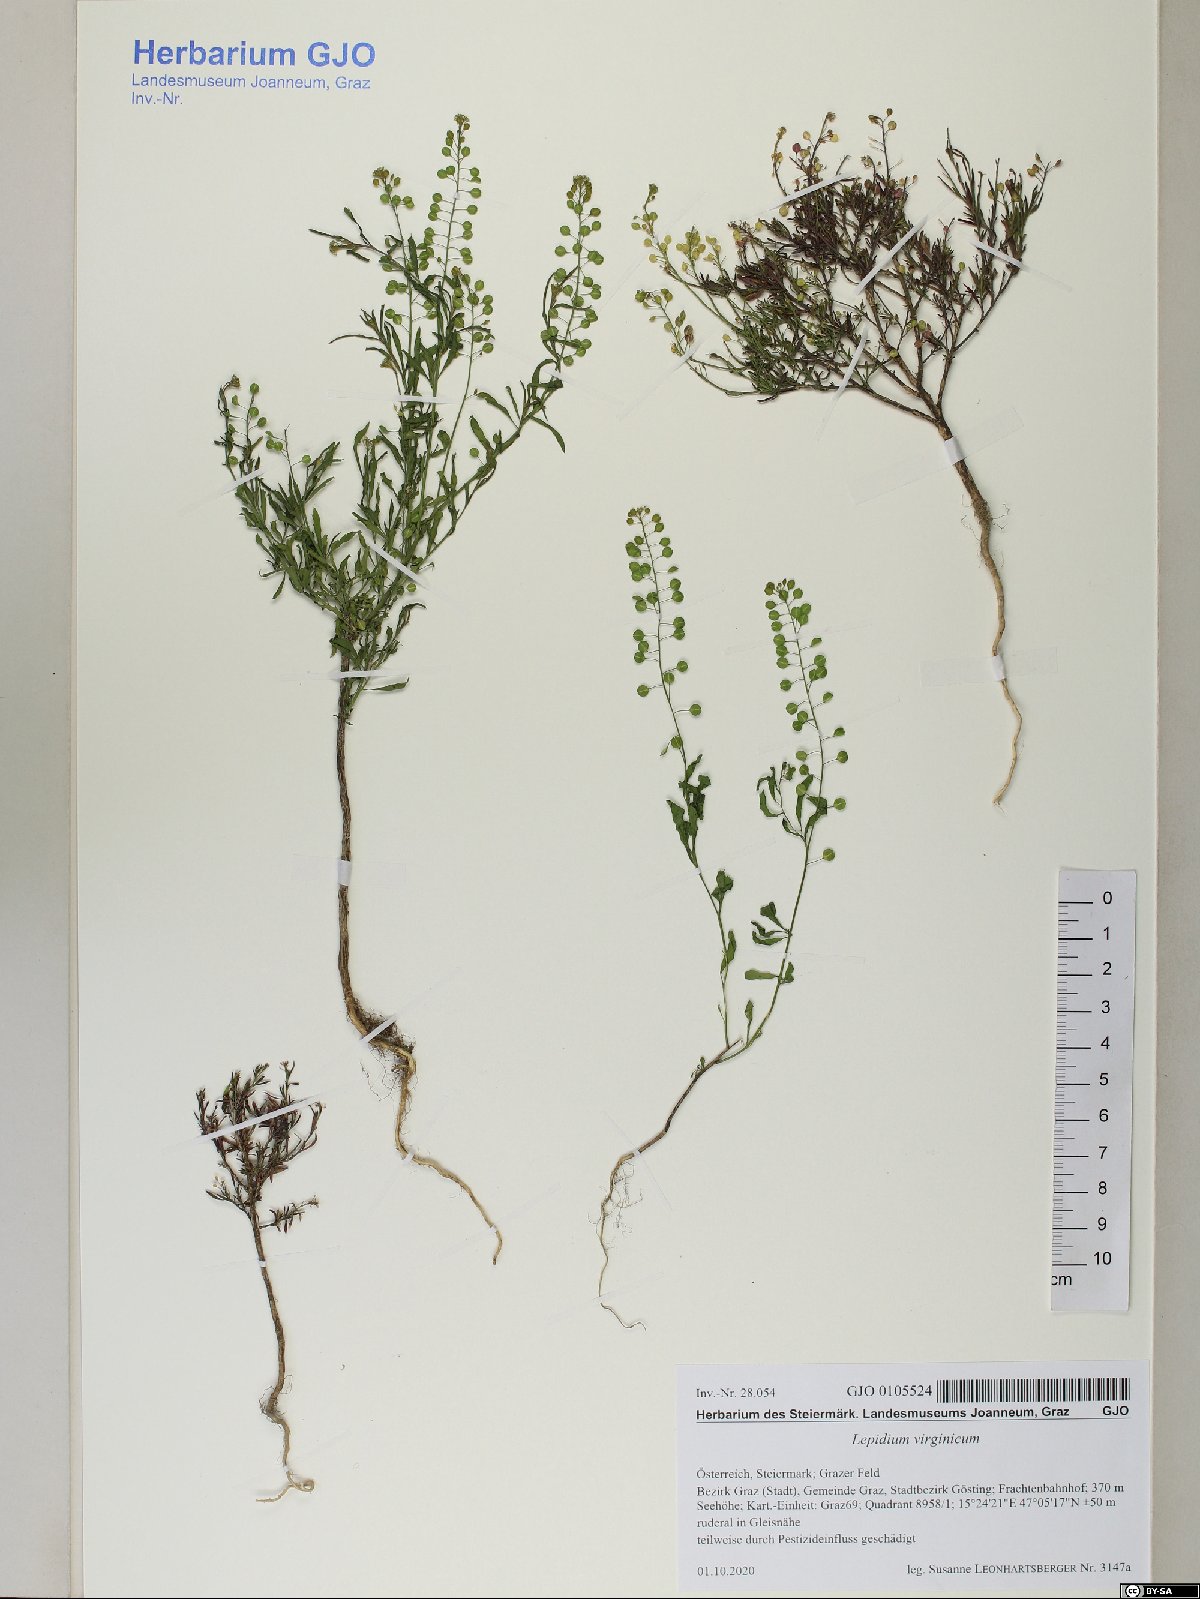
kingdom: Plantae
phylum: Tracheophyta
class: Magnoliopsida
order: Brassicales
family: Brassicaceae
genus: Lepidium
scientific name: Lepidium virginicum
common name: Least pepperwort
